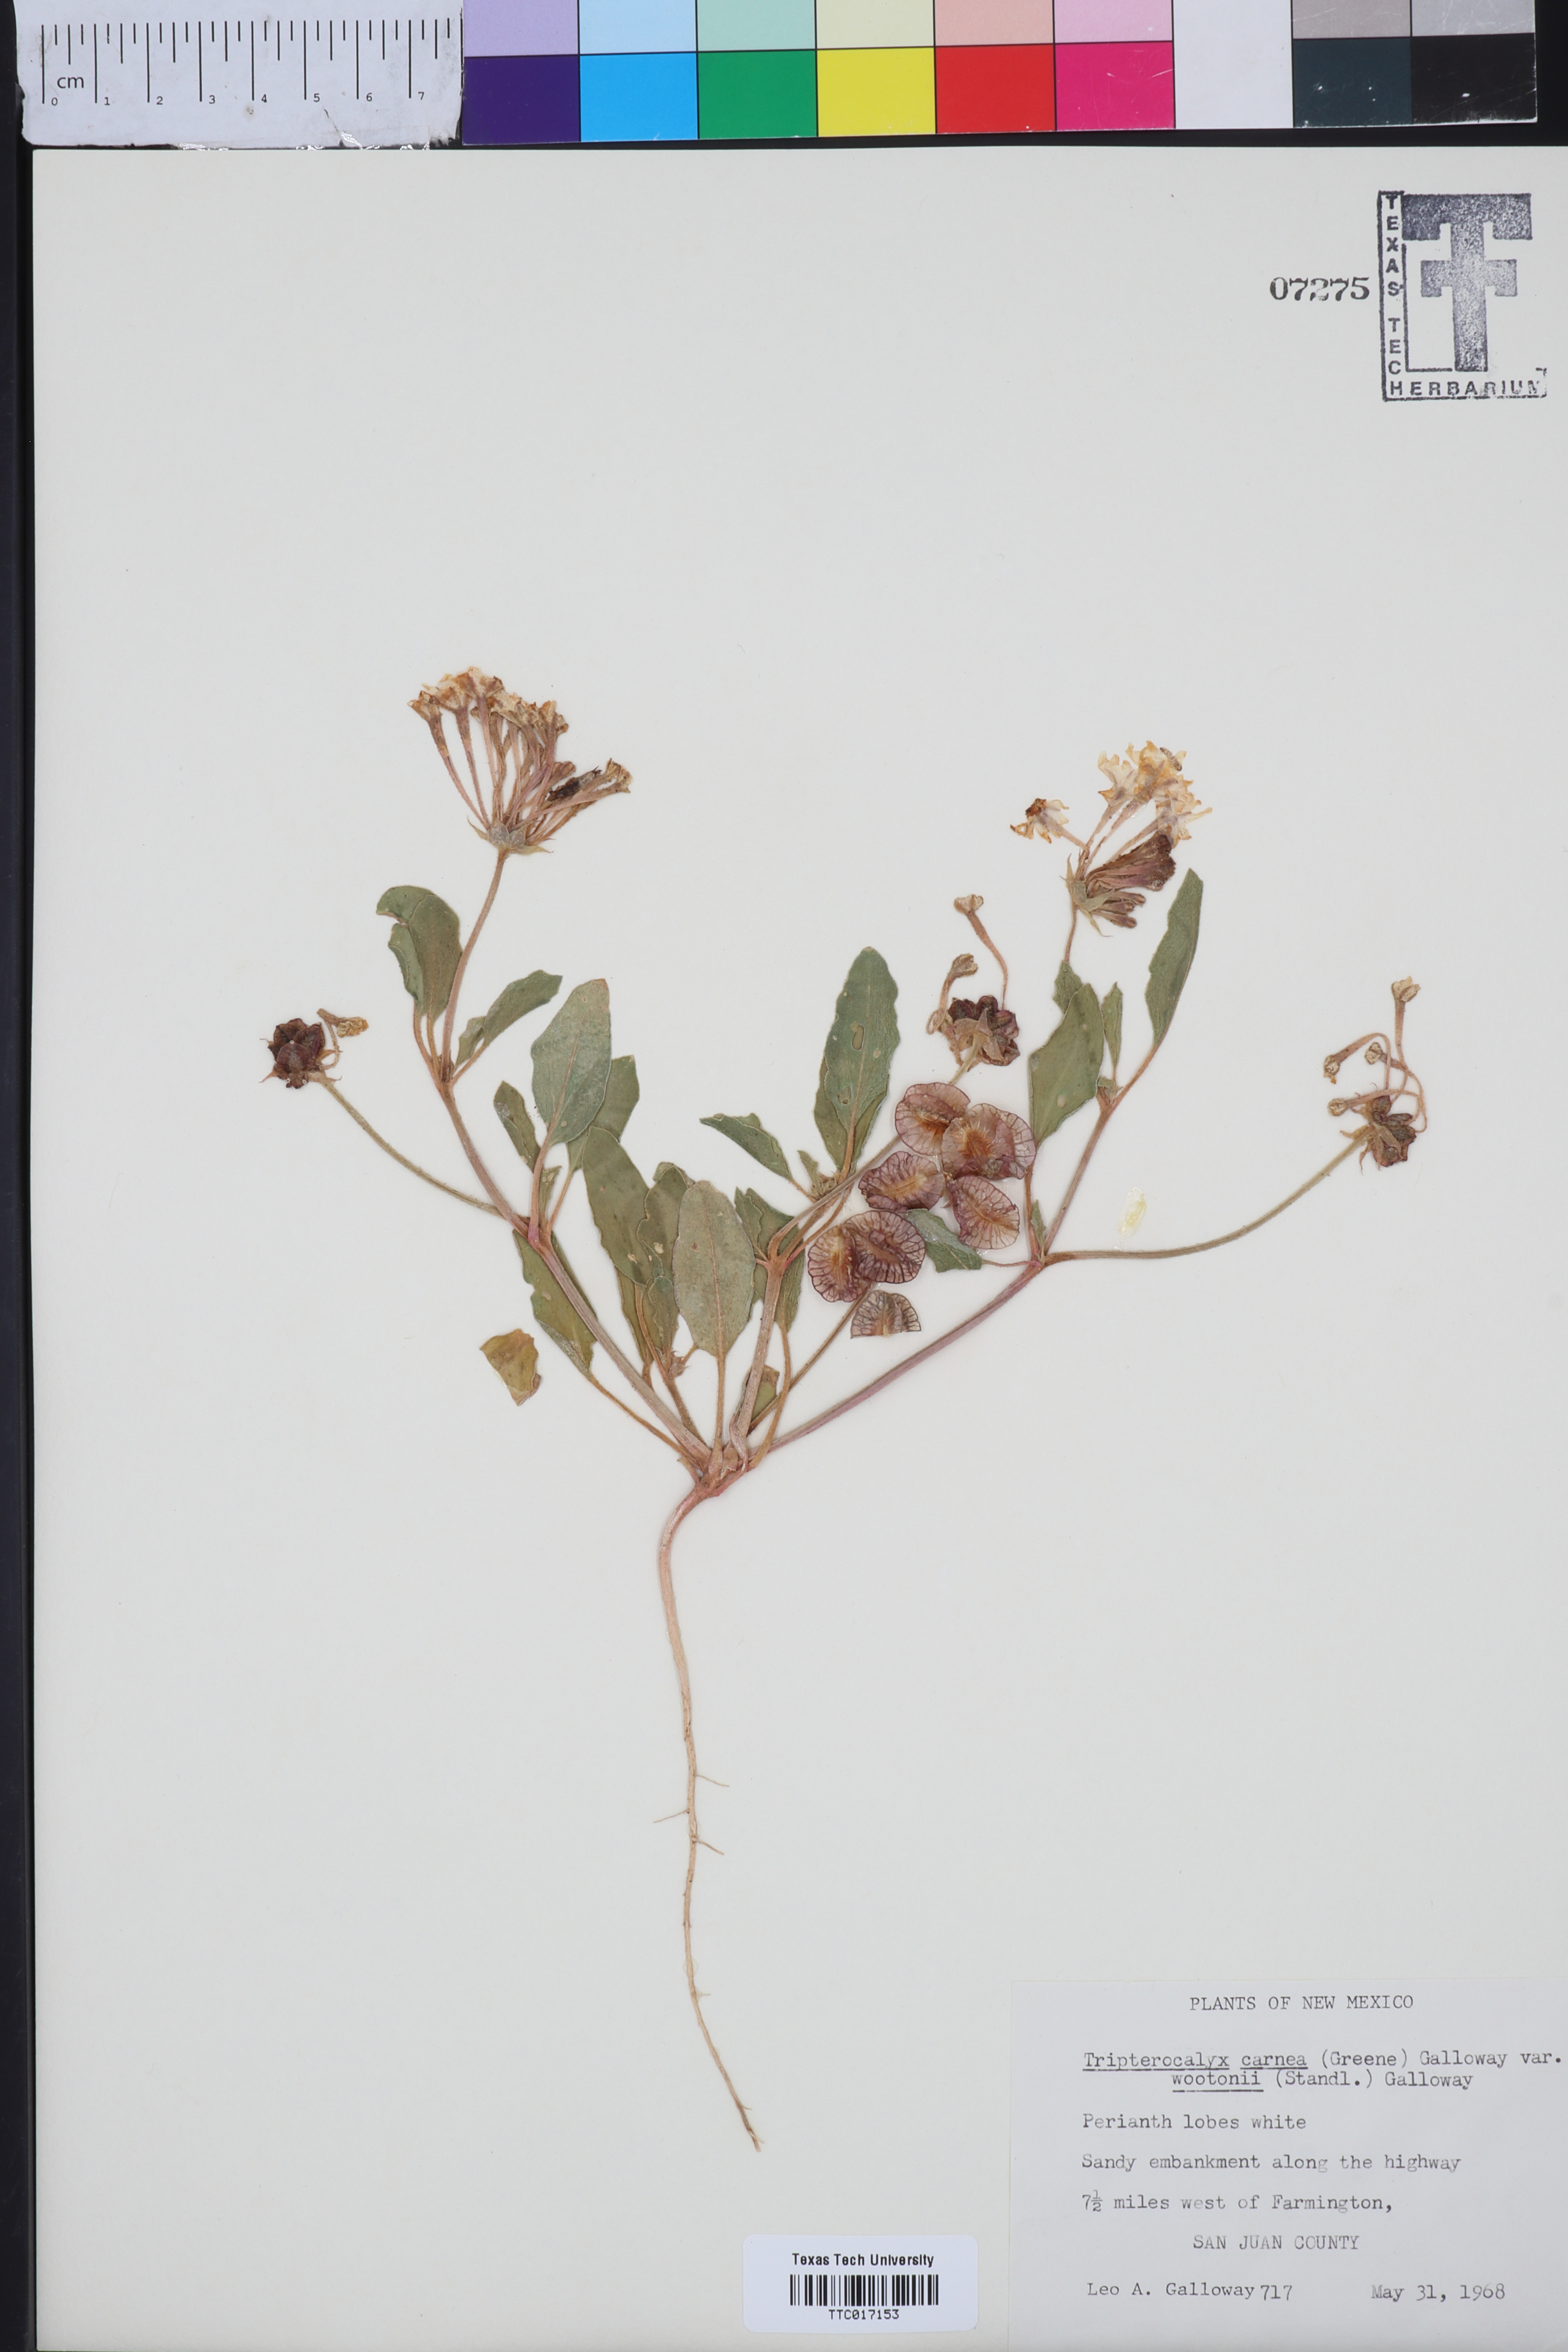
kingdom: Plantae
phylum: Tracheophyta
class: Magnoliopsida
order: Caryophyllales
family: Nyctaginaceae
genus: Tripterocalyx
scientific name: Tripterocalyx wootonii
